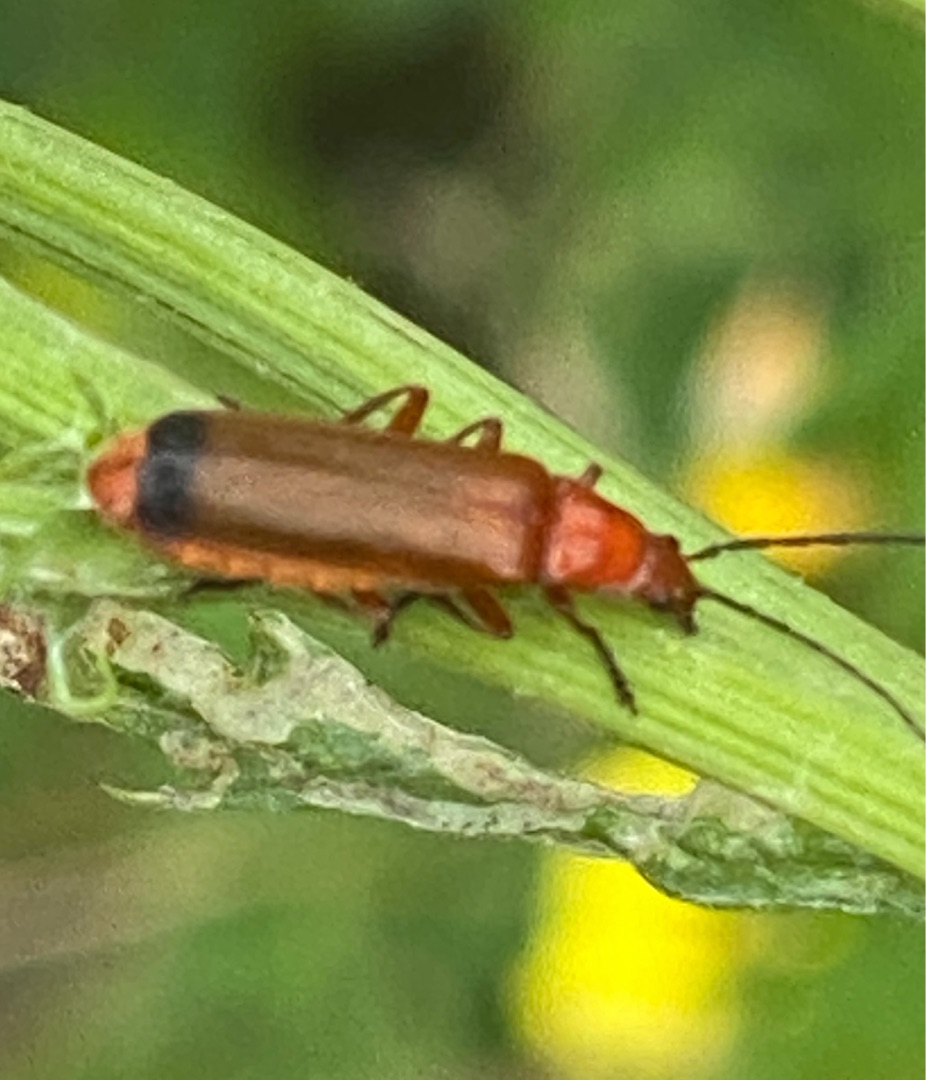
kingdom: Animalia
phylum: Arthropoda
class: Insecta
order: Coleoptera
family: Cantharidae
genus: Rhagonycha
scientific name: Rhagonycha fulva
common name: Præstebille
